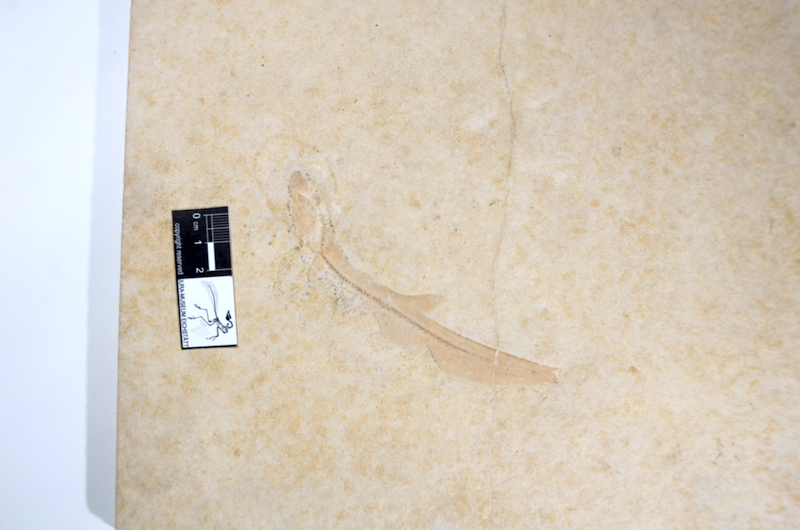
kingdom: Animalia
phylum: Chordata
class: Elasmobranchii
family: Paraorthacodontidae
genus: Macrourogaleus
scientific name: Macrourogaleus hassei
